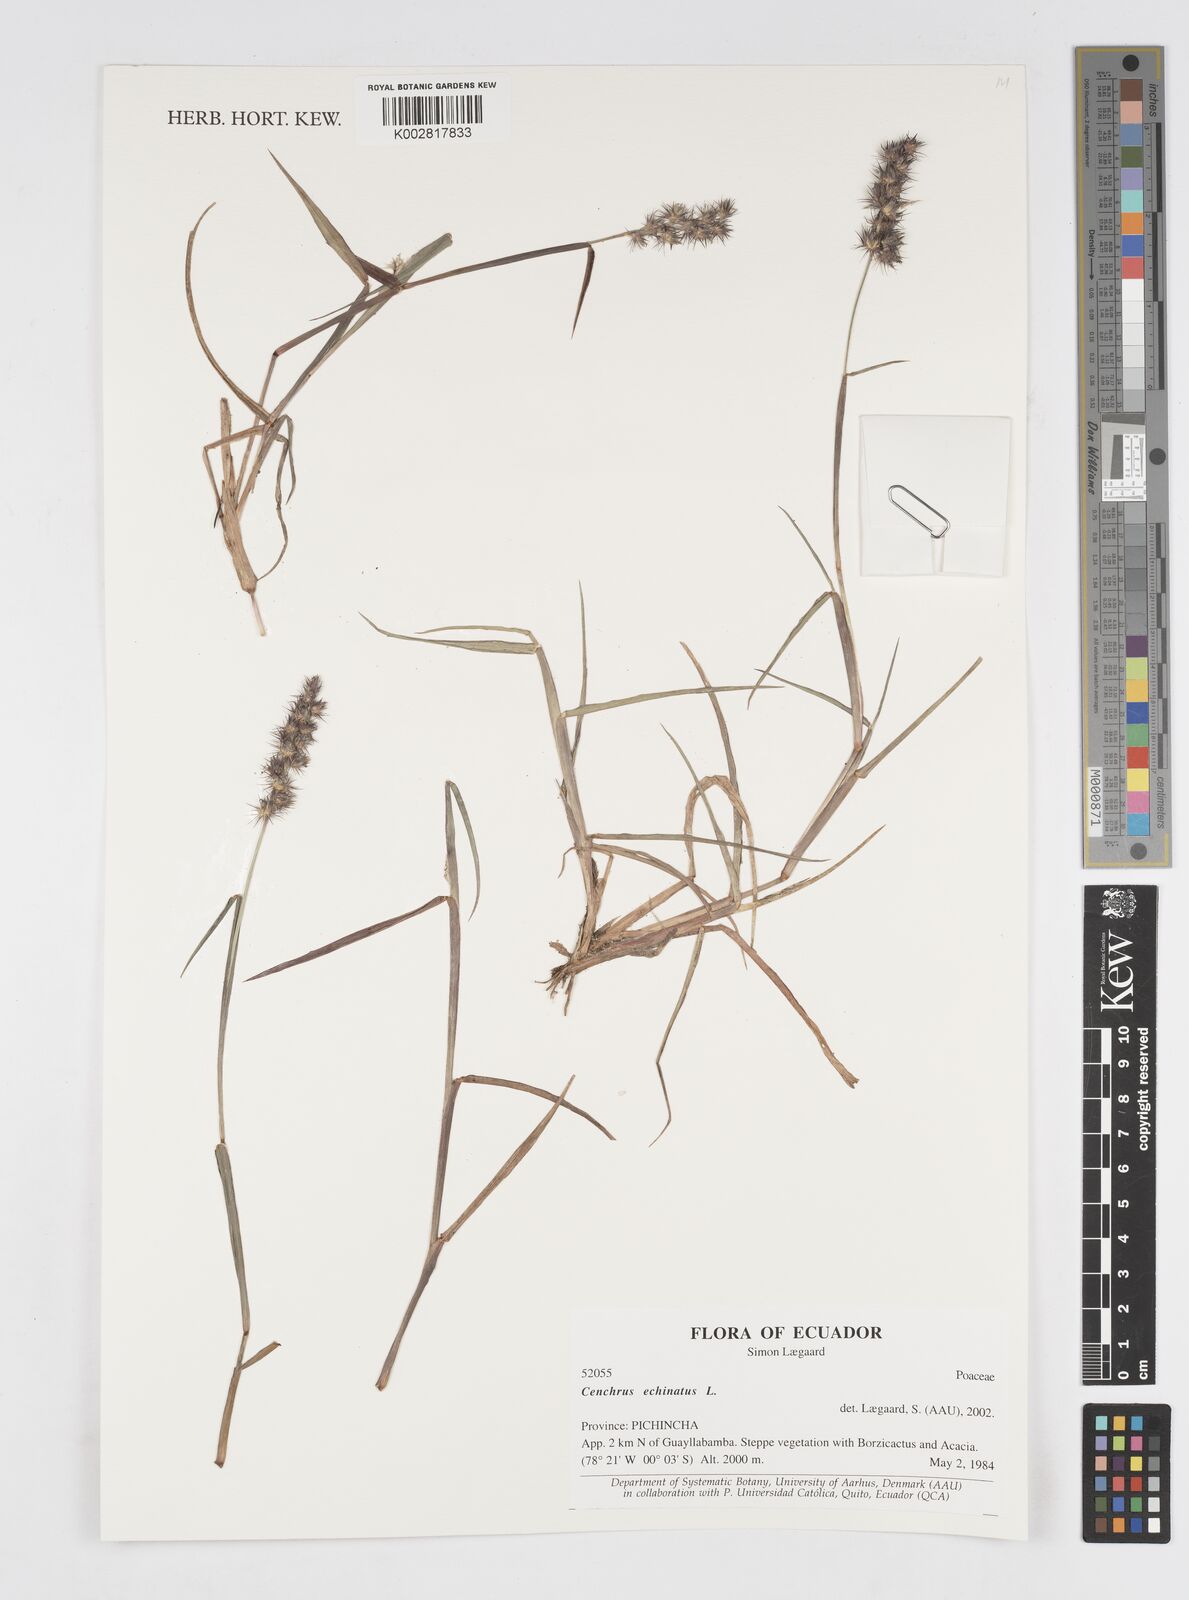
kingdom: Plantae
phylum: Tracheophyta
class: Liliopsida
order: Poales
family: Poaceae
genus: Cenchrus
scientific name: Cenchrus
